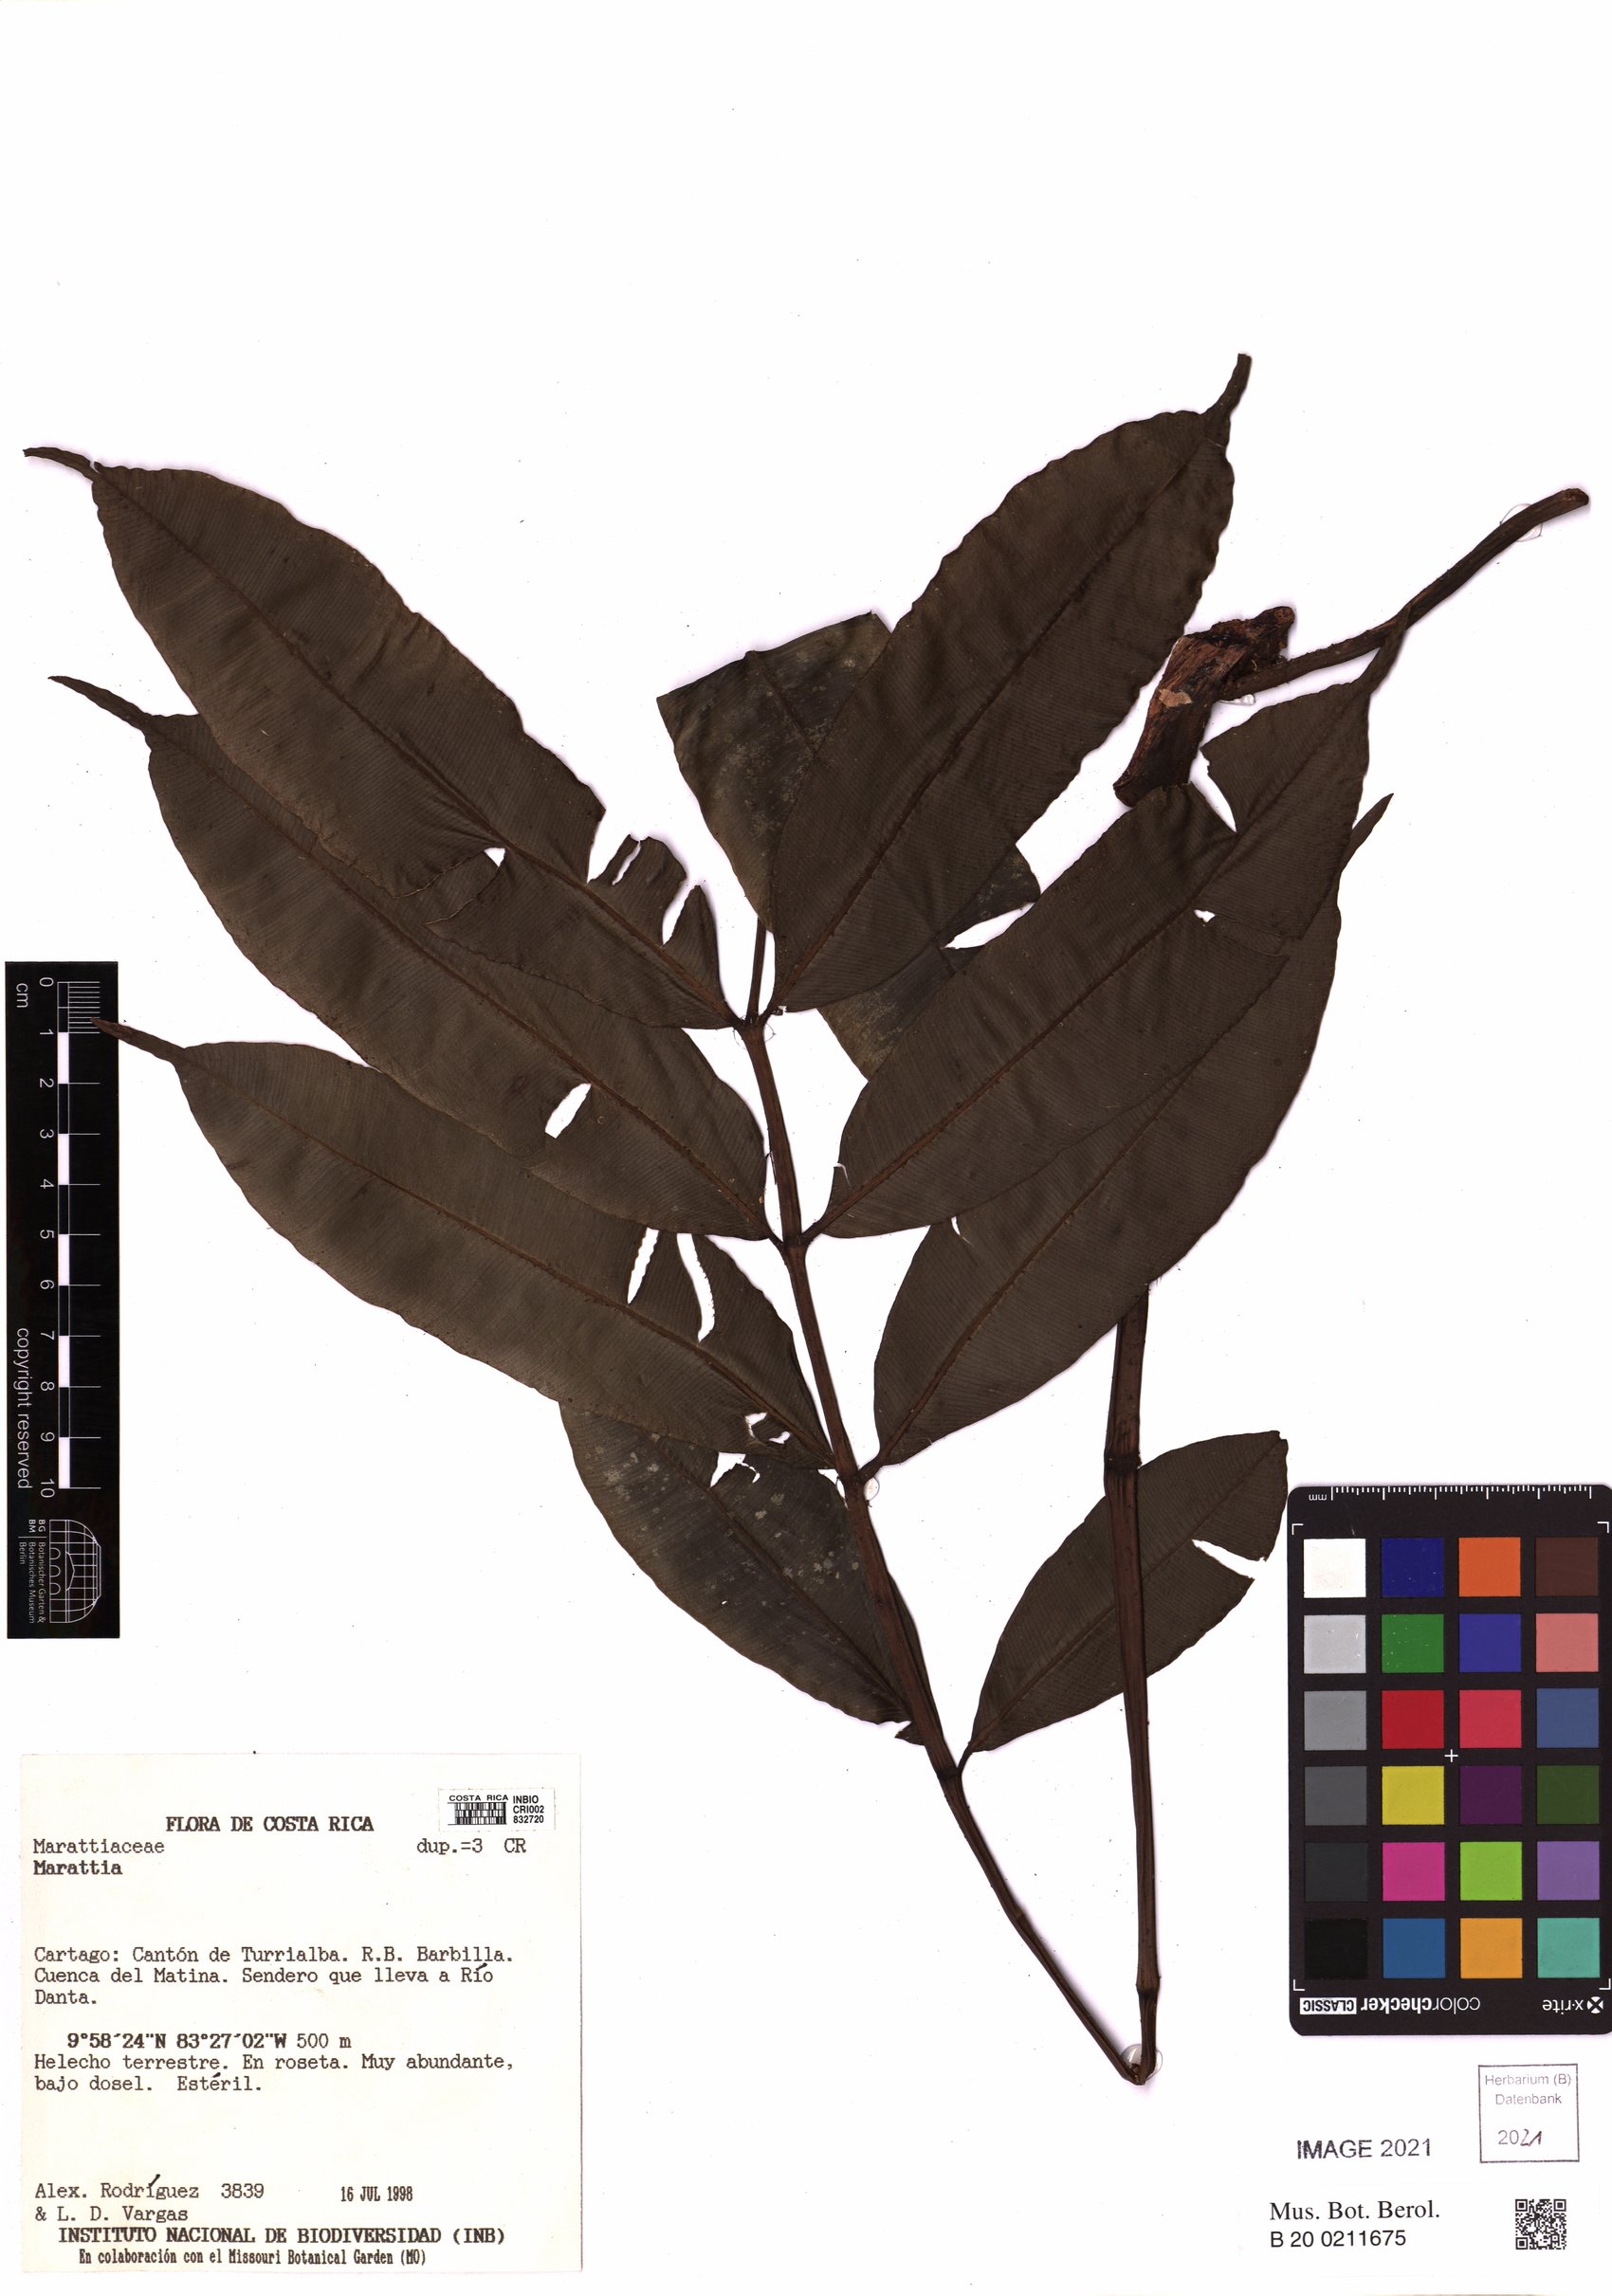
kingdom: Plantae
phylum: Tracheophyta
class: Polypodiopsida
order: Marattiales
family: Marattiaceae
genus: Marattia
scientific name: Marattia
